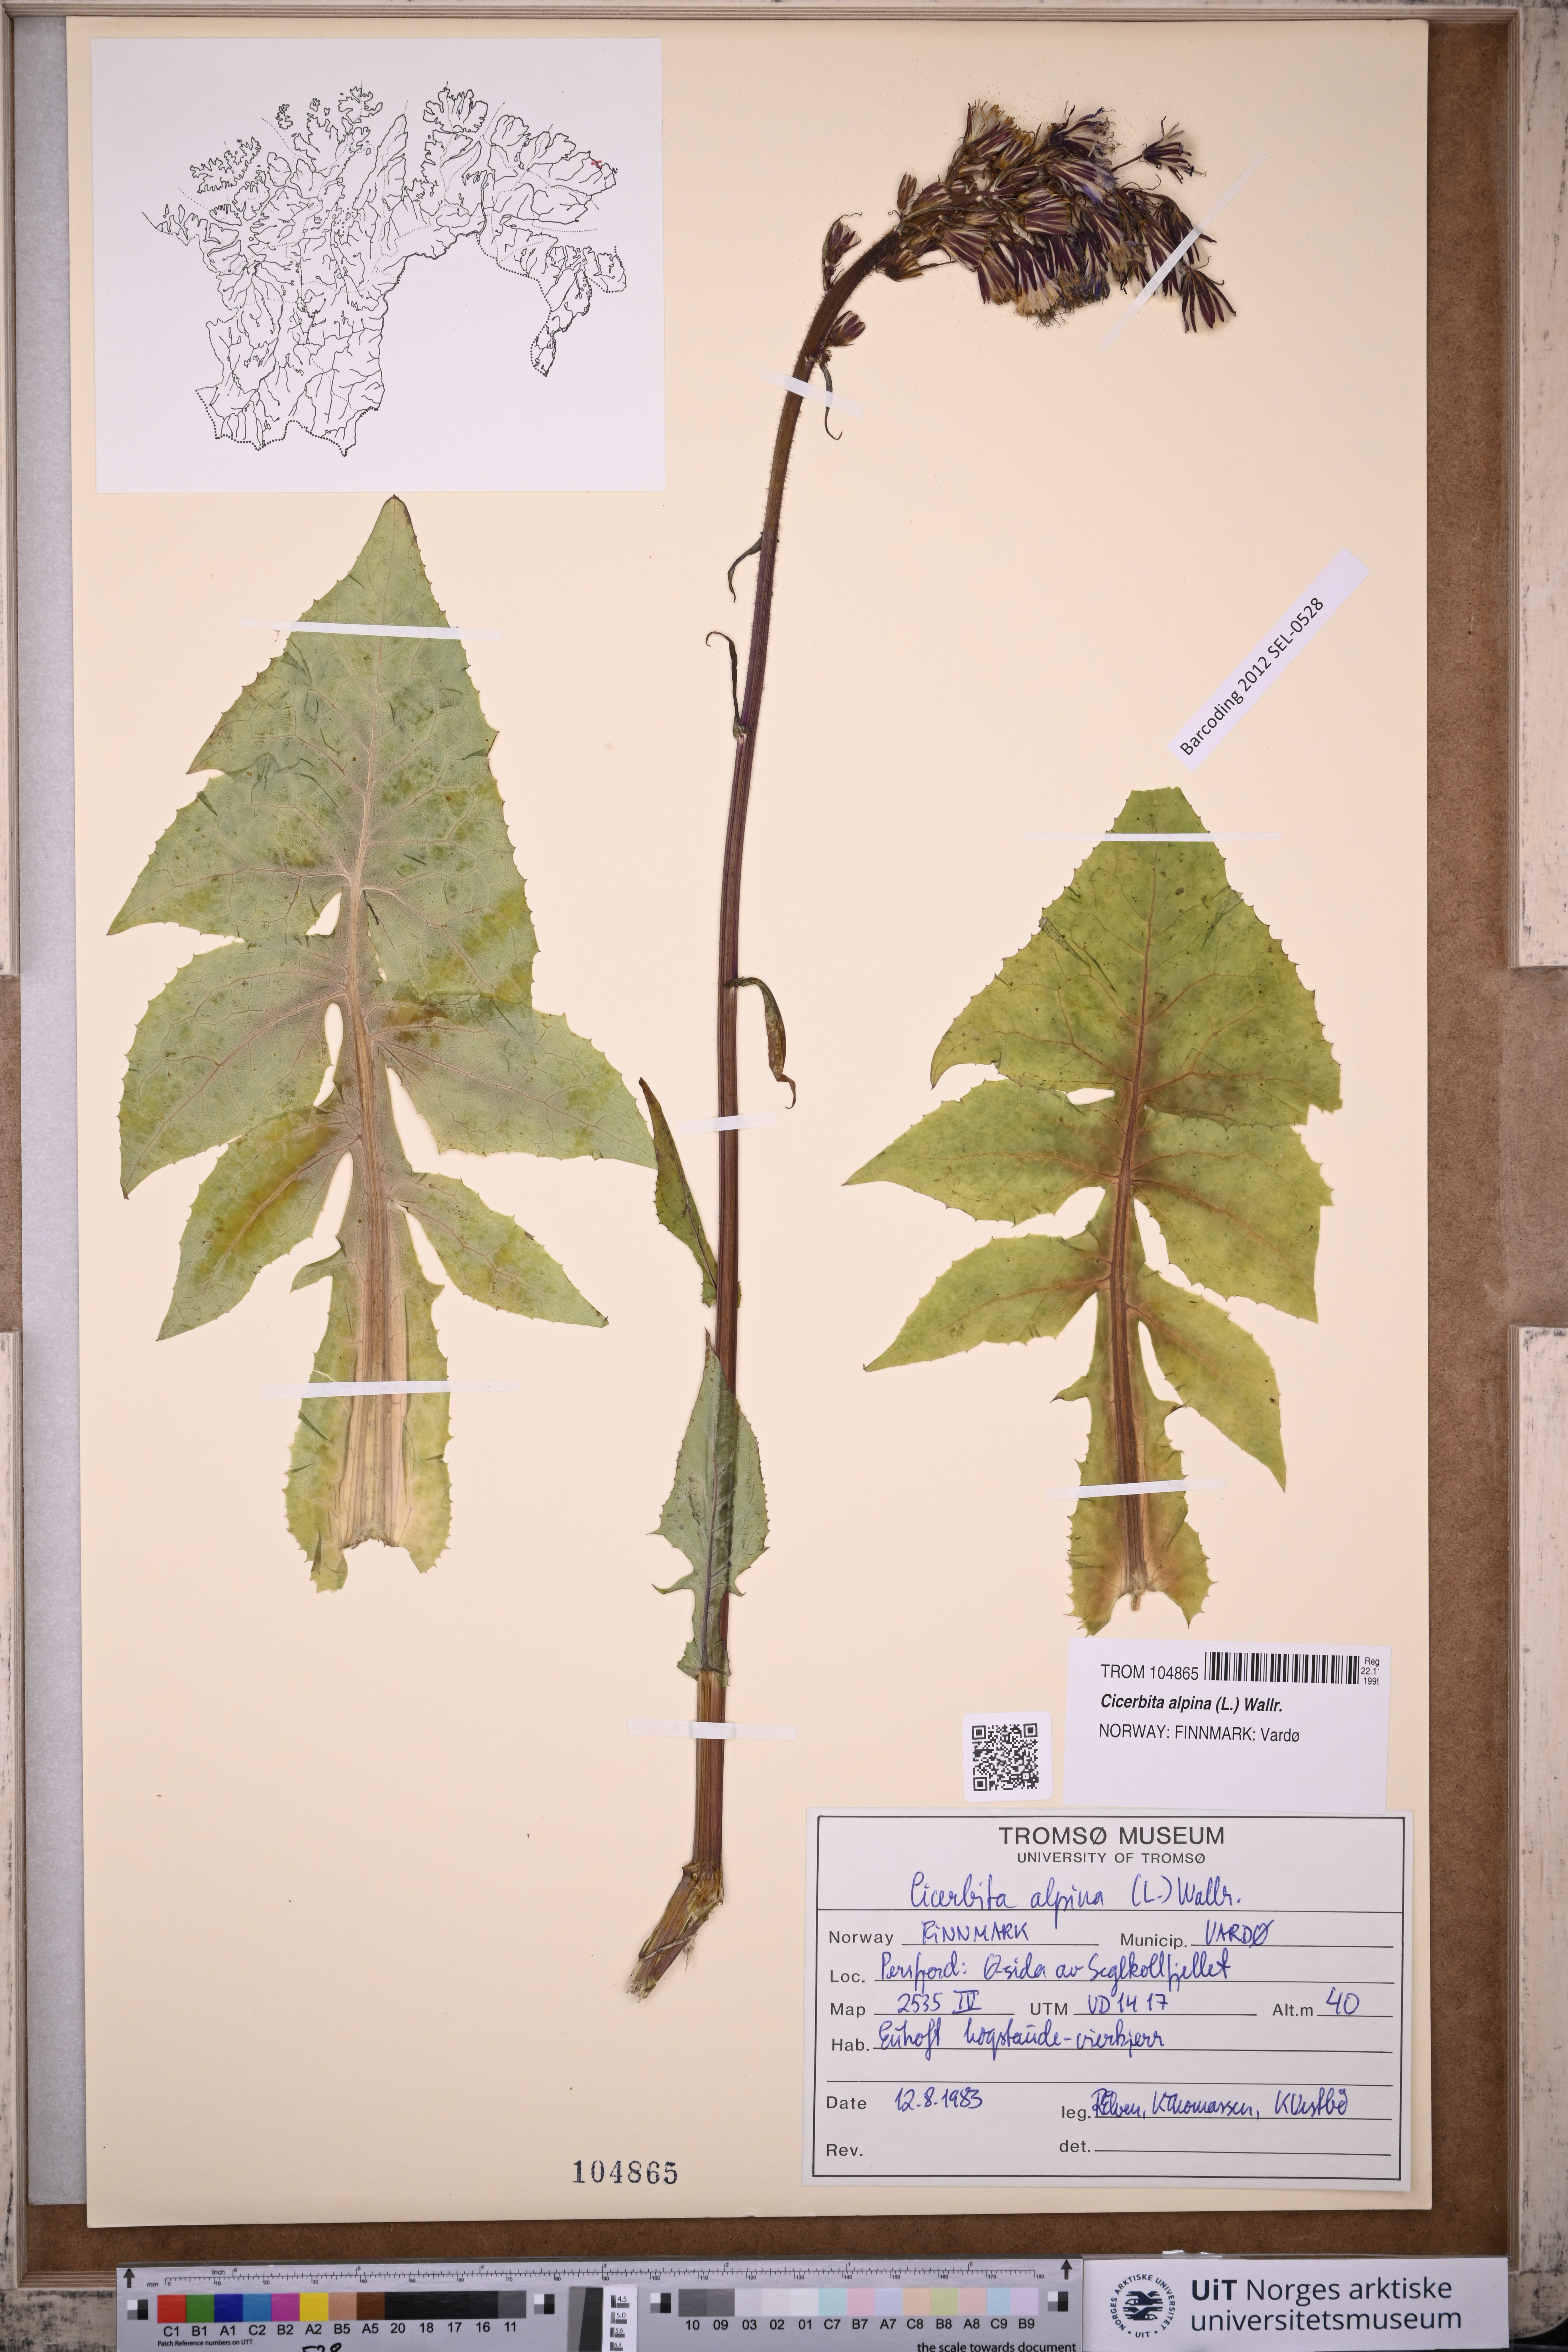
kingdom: Plantae
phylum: Tracheophyta
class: Magnoliopsida
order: Asterales
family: Asteraceae
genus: Cicerbita
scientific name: Cicerbita alpina
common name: Alpine blue-sow-thistle
